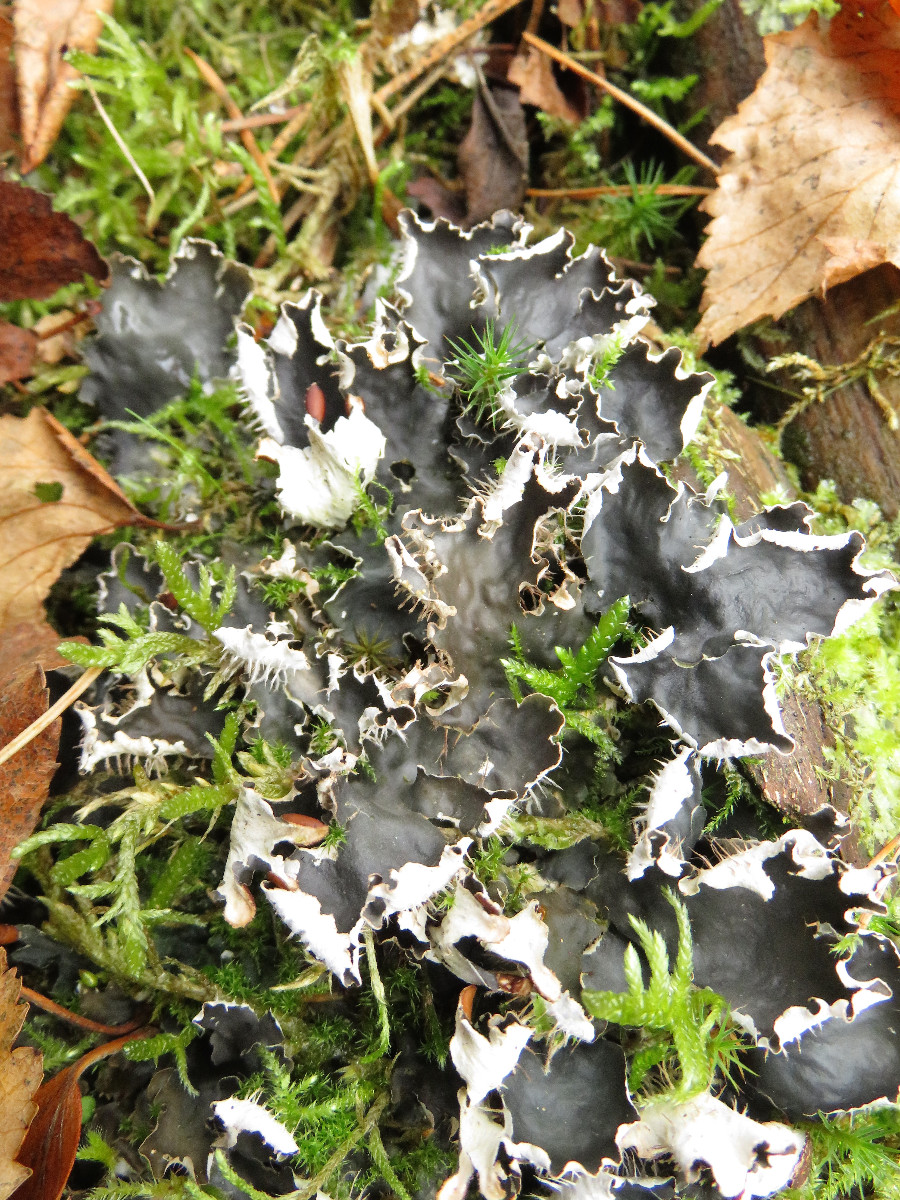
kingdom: Fungi
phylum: Ascomycota
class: Lecanoromycetes
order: Peltigerales
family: Peltigeraceae
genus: Peltigera
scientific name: Peltigera hymenina
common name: hinde-skjoldlav
